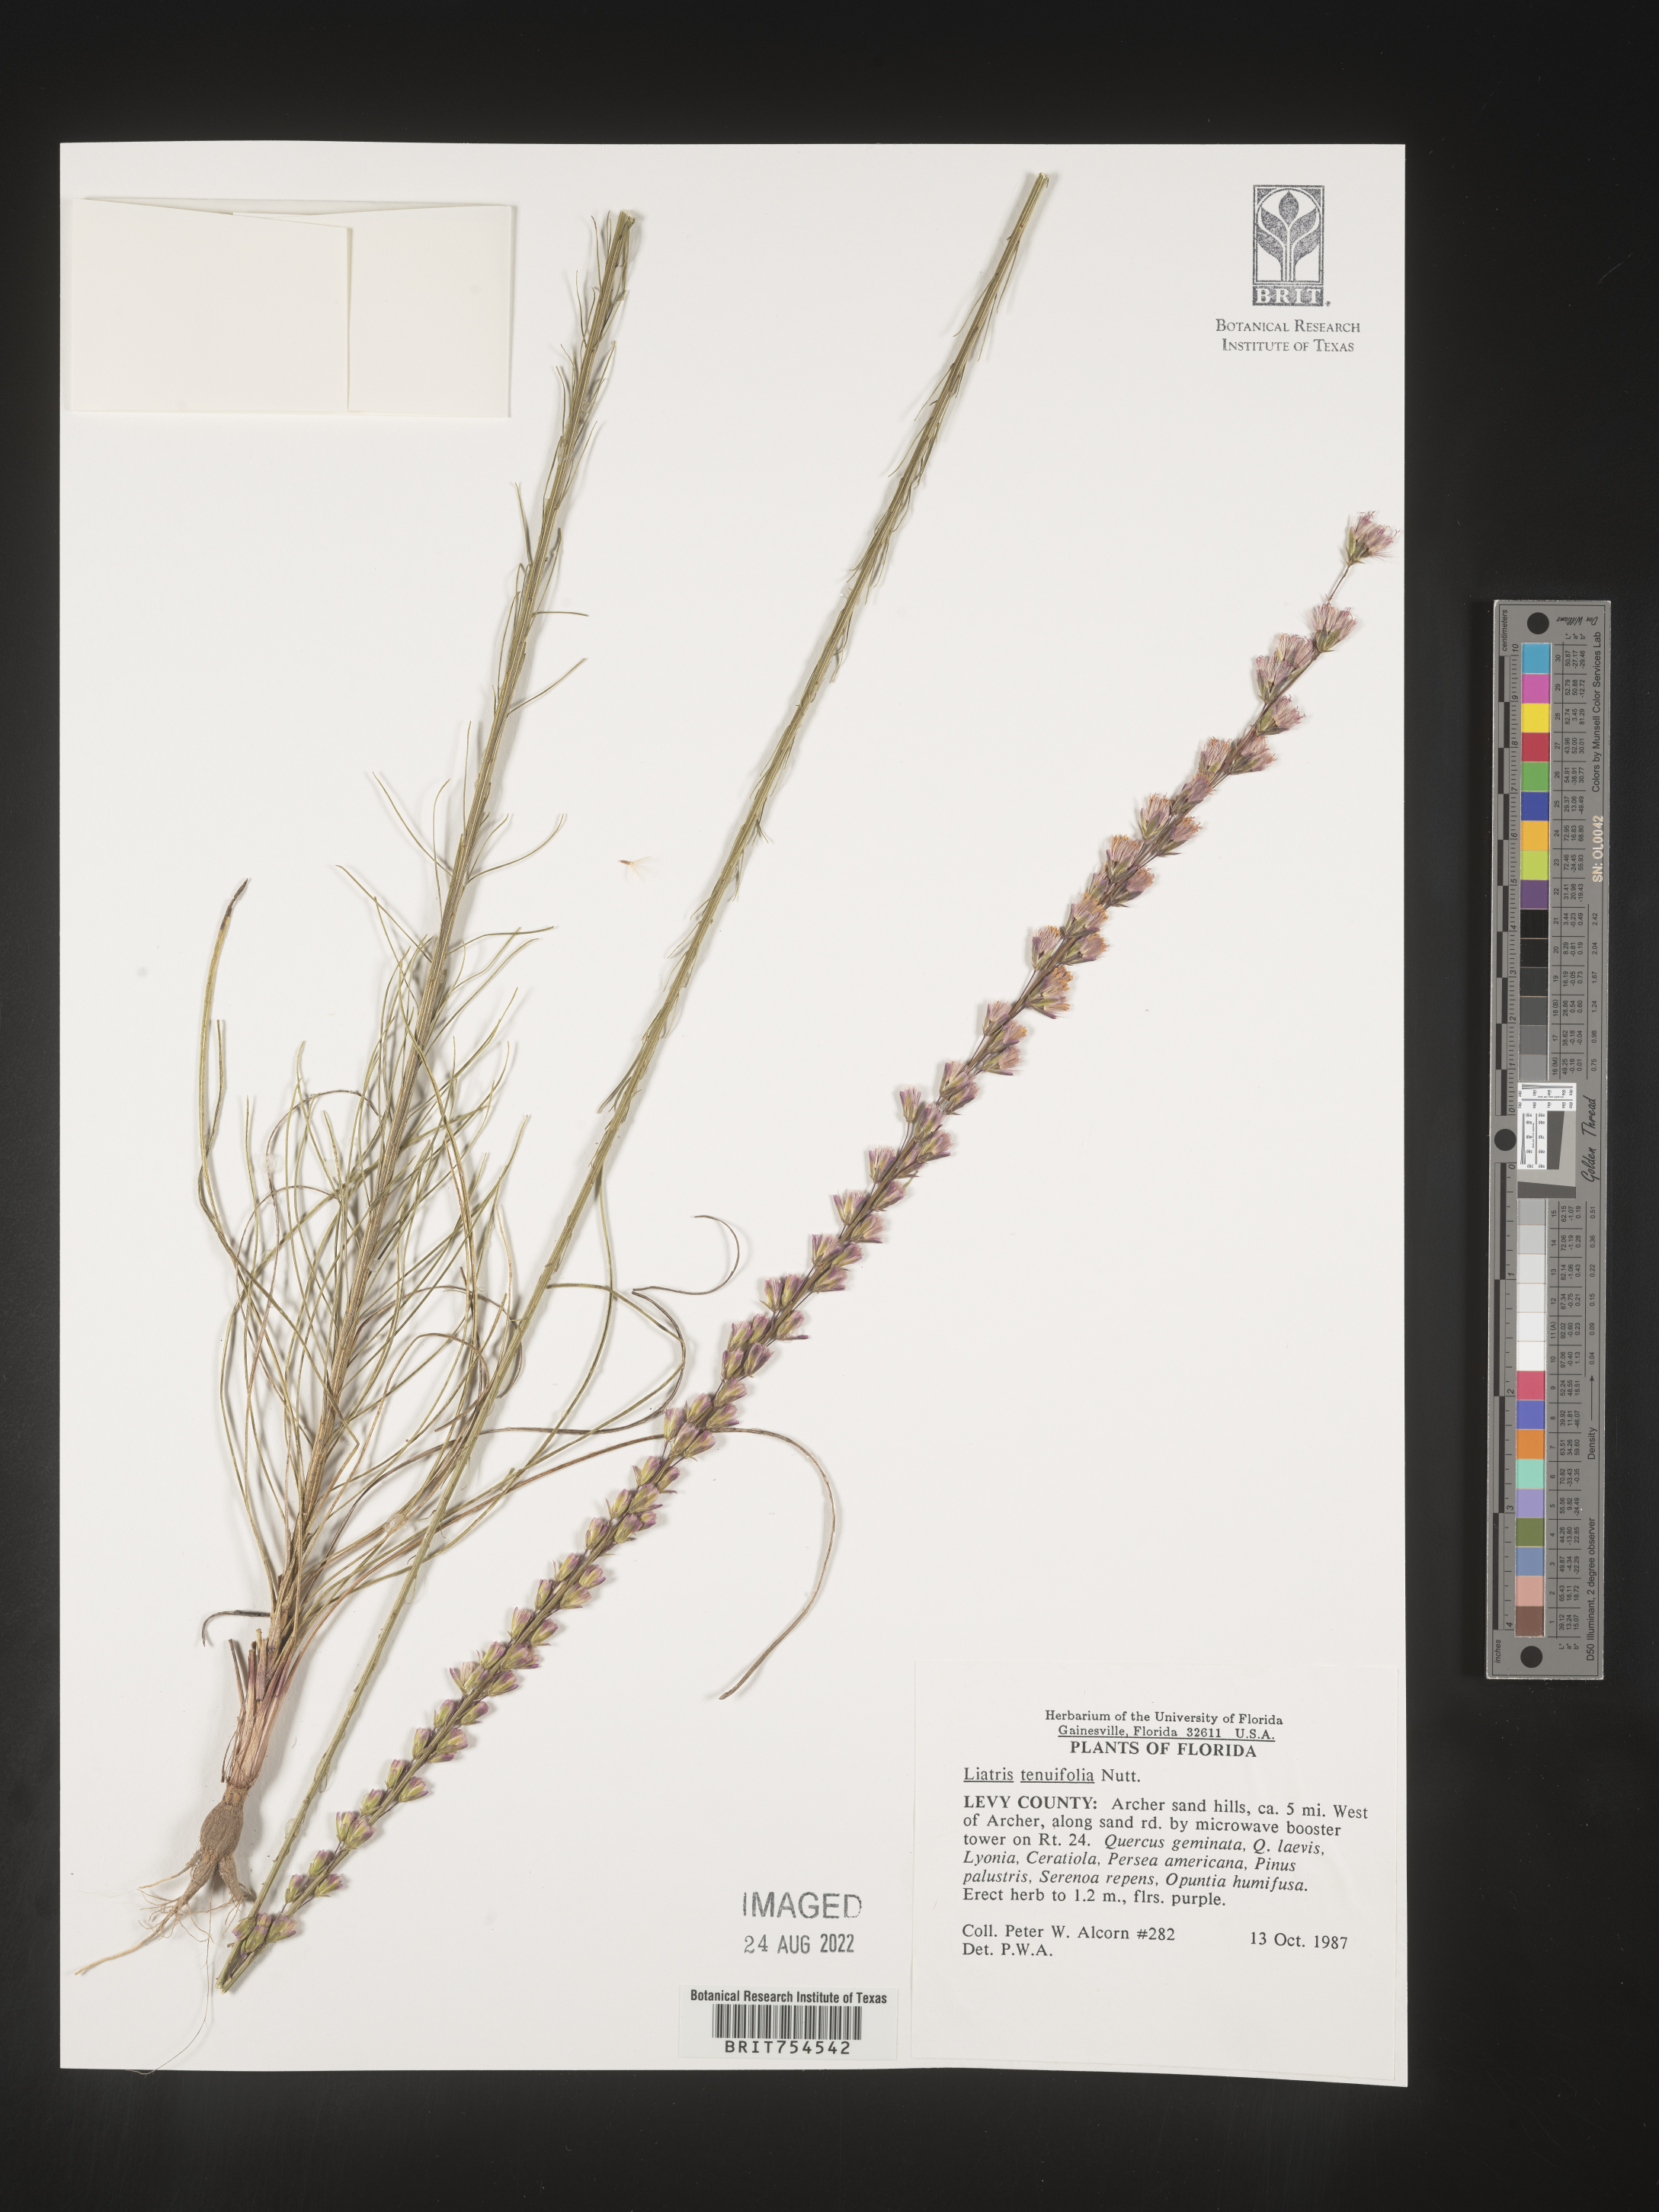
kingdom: Plantae
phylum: Tracheophyta
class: Magnoliopsida
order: Asterales
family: Asteraceae
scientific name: Asteraceae
